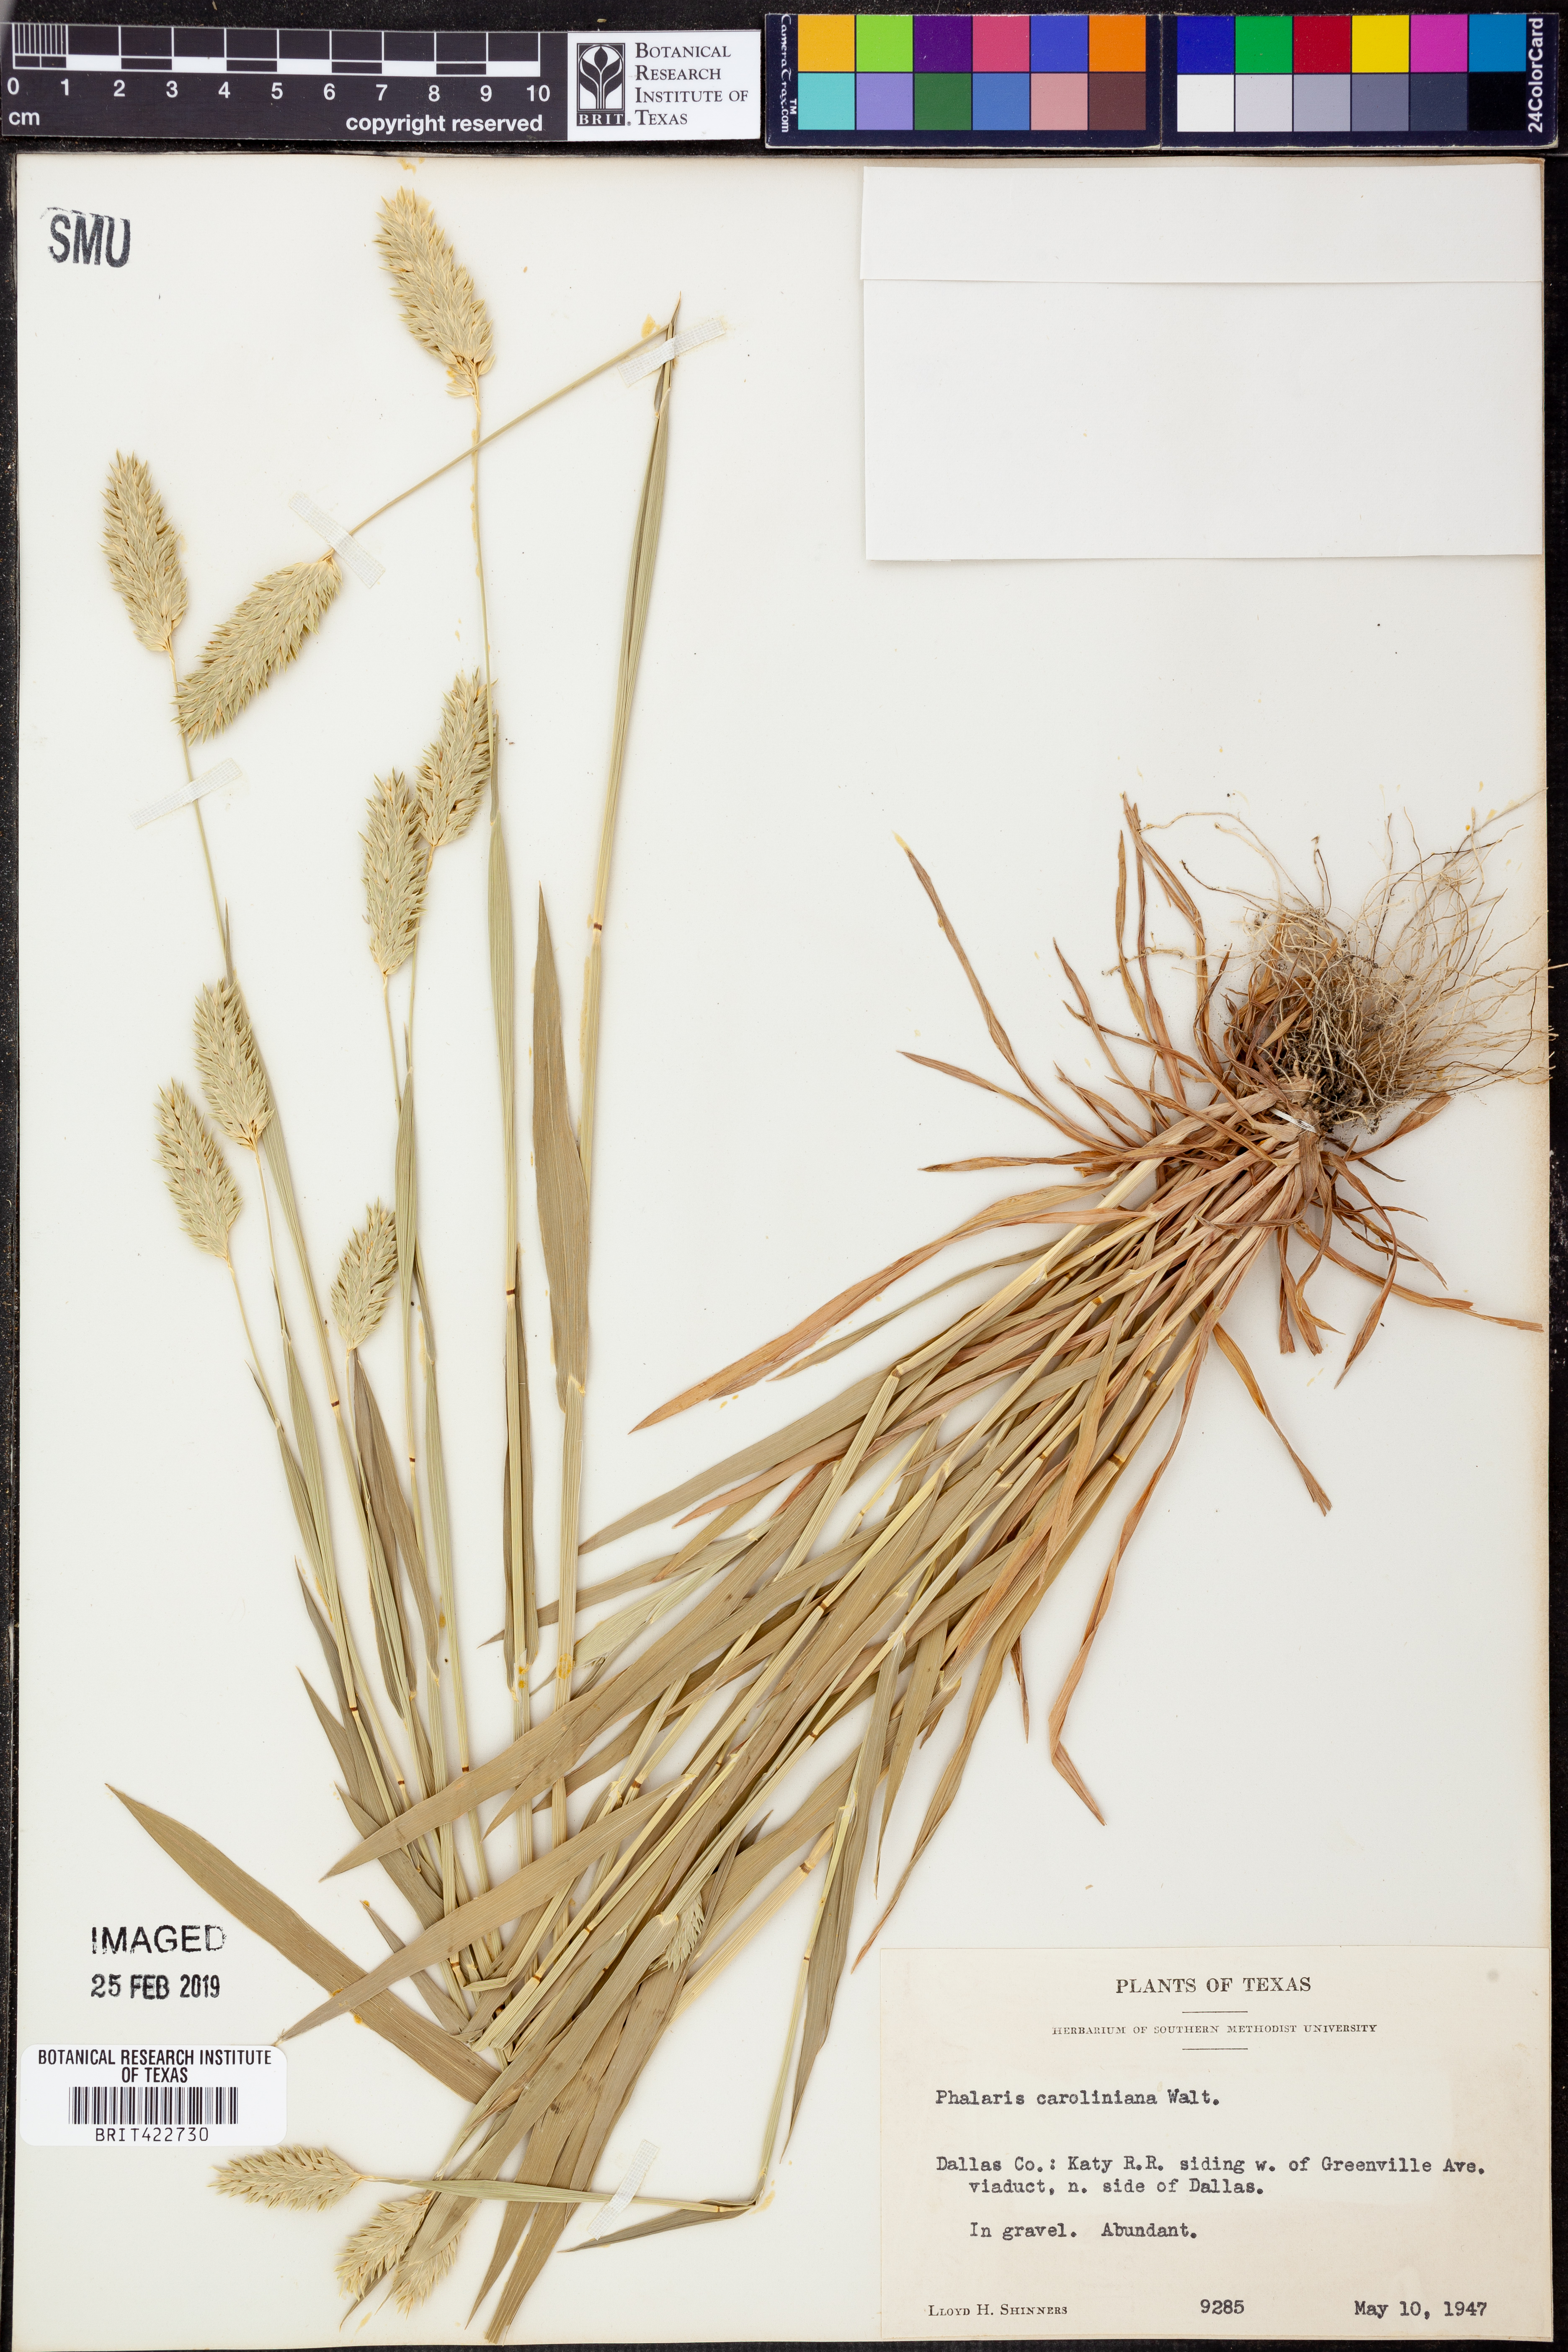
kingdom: Plantae
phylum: Tracheophyta
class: Liliopsida
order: Poales
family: Poaceae
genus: Phalaris
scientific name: Phalaris caroliniana
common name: May grass
